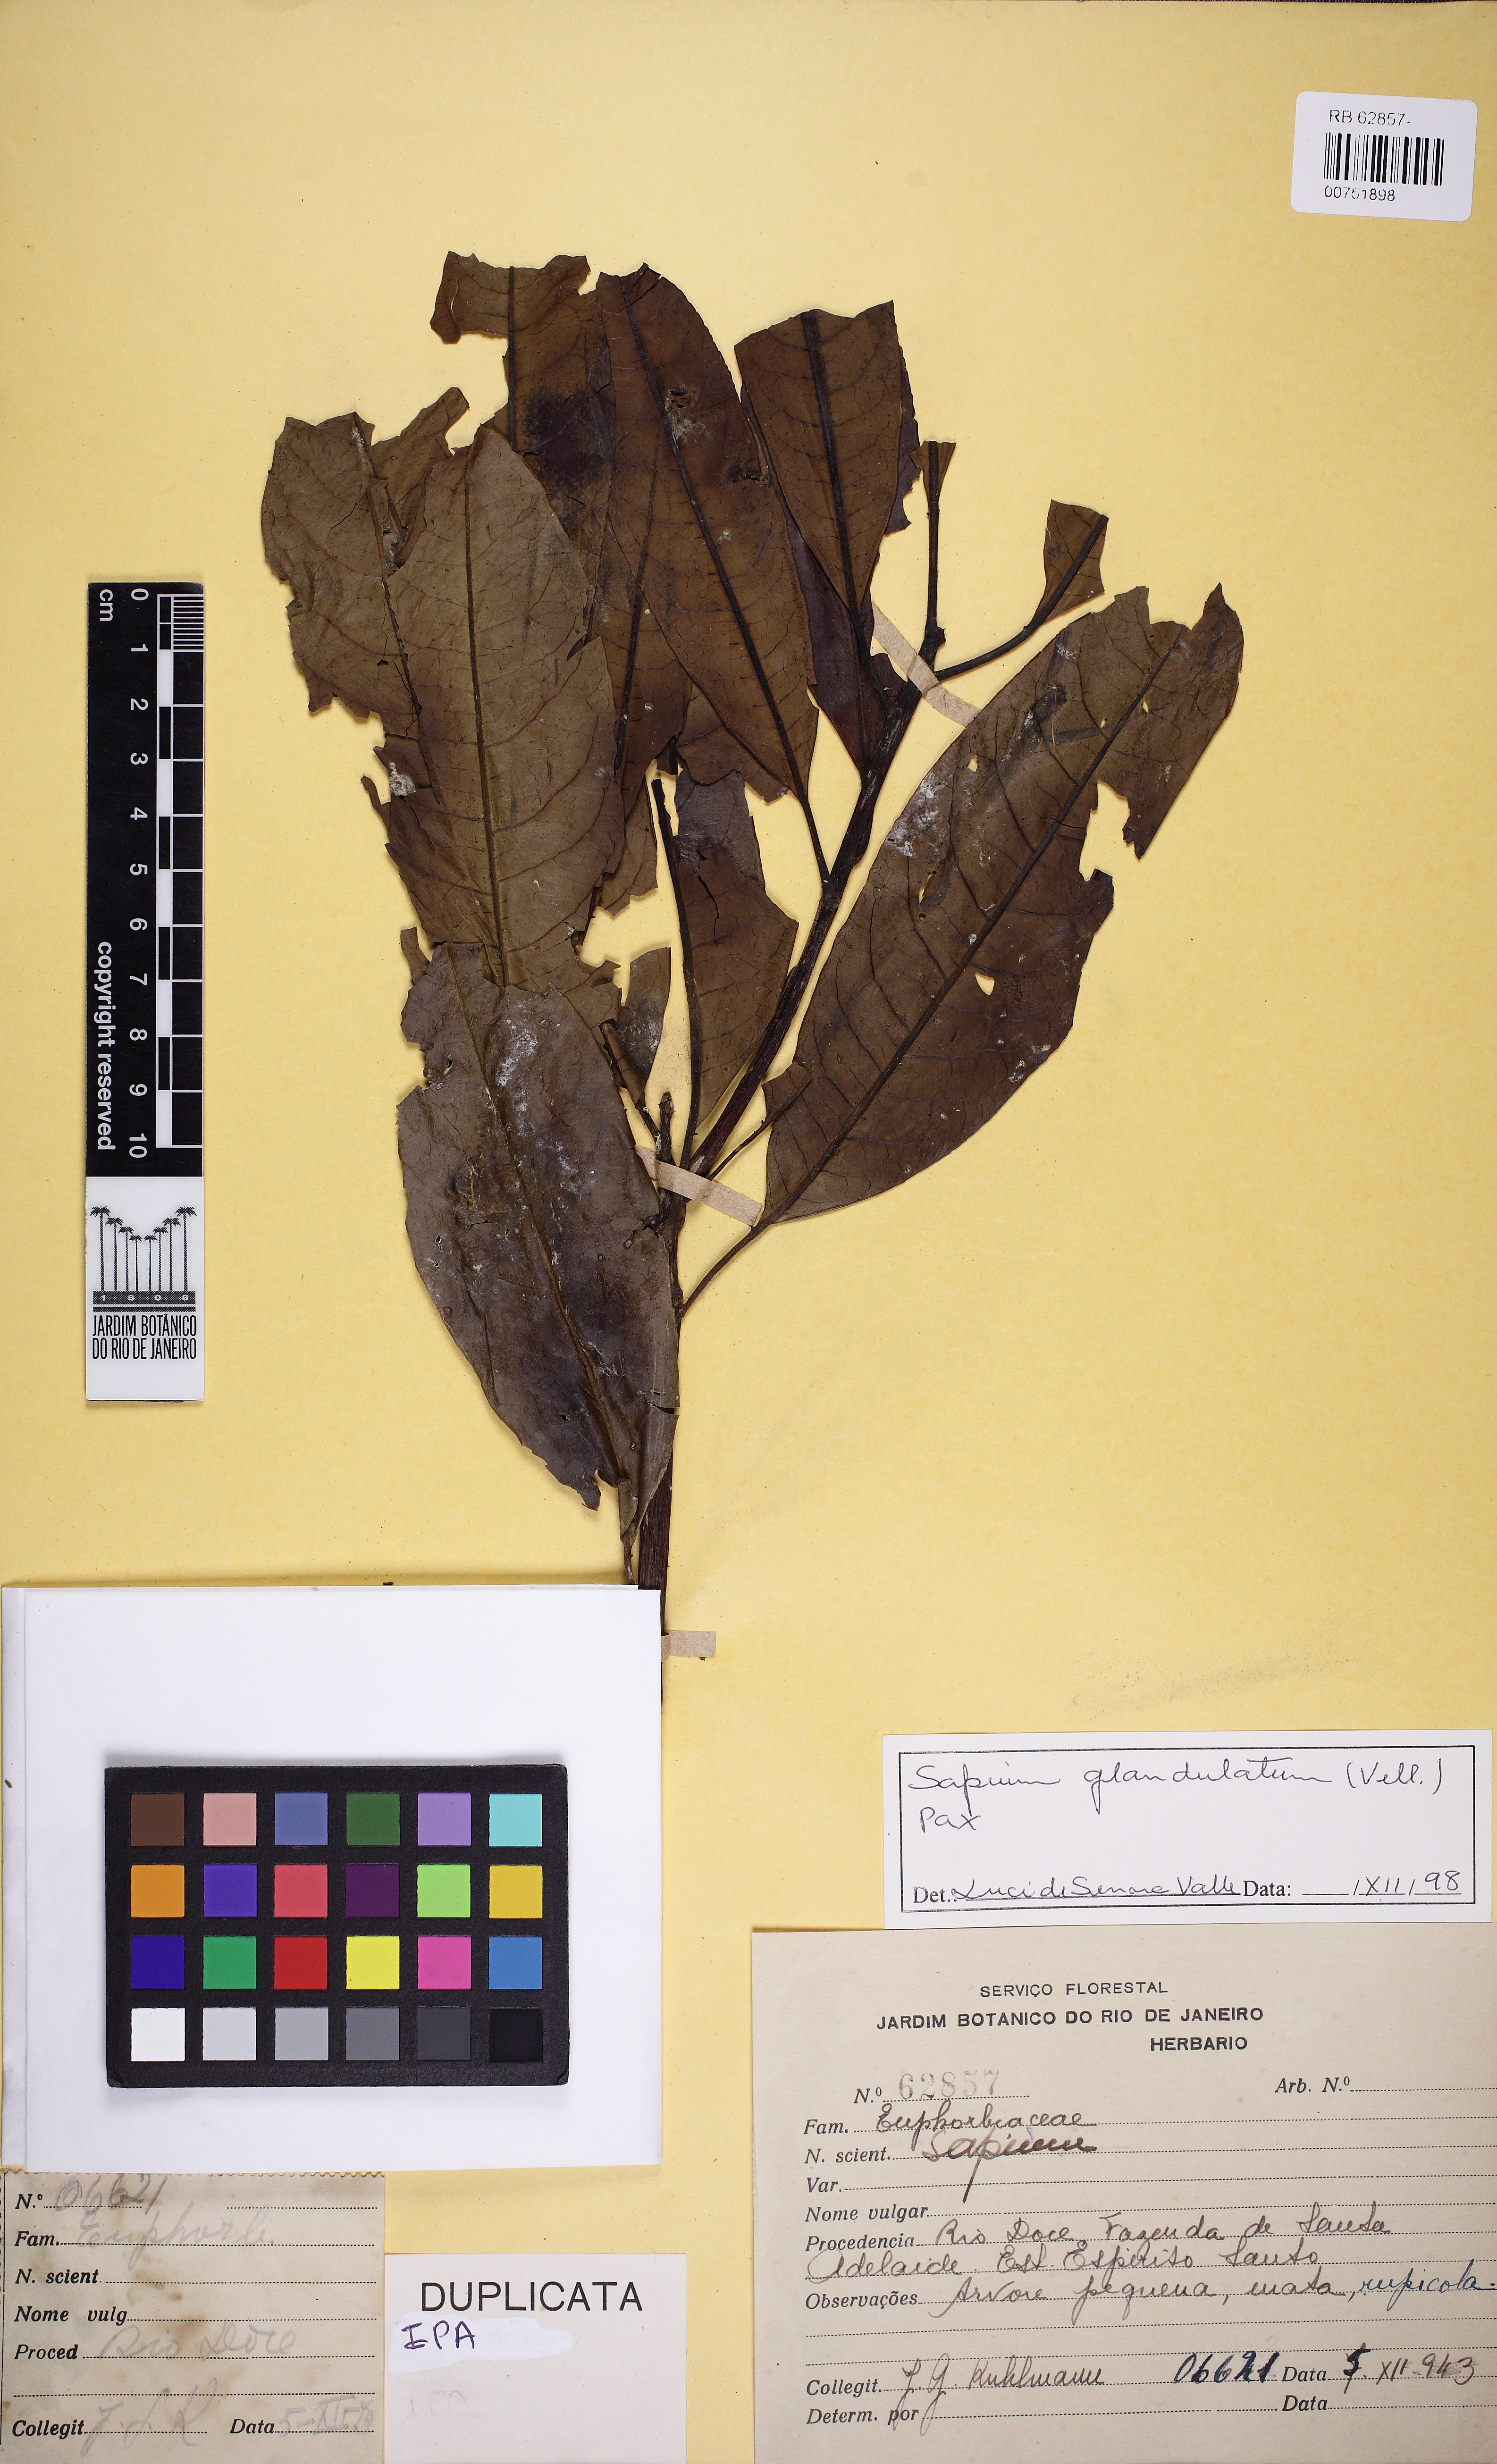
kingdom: Plantae
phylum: Tracheophyta
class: Magnoliopsida
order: Malpighiales
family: Euphorbiaceae
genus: Sapium
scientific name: Sapium glandulosum
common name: Milktree
